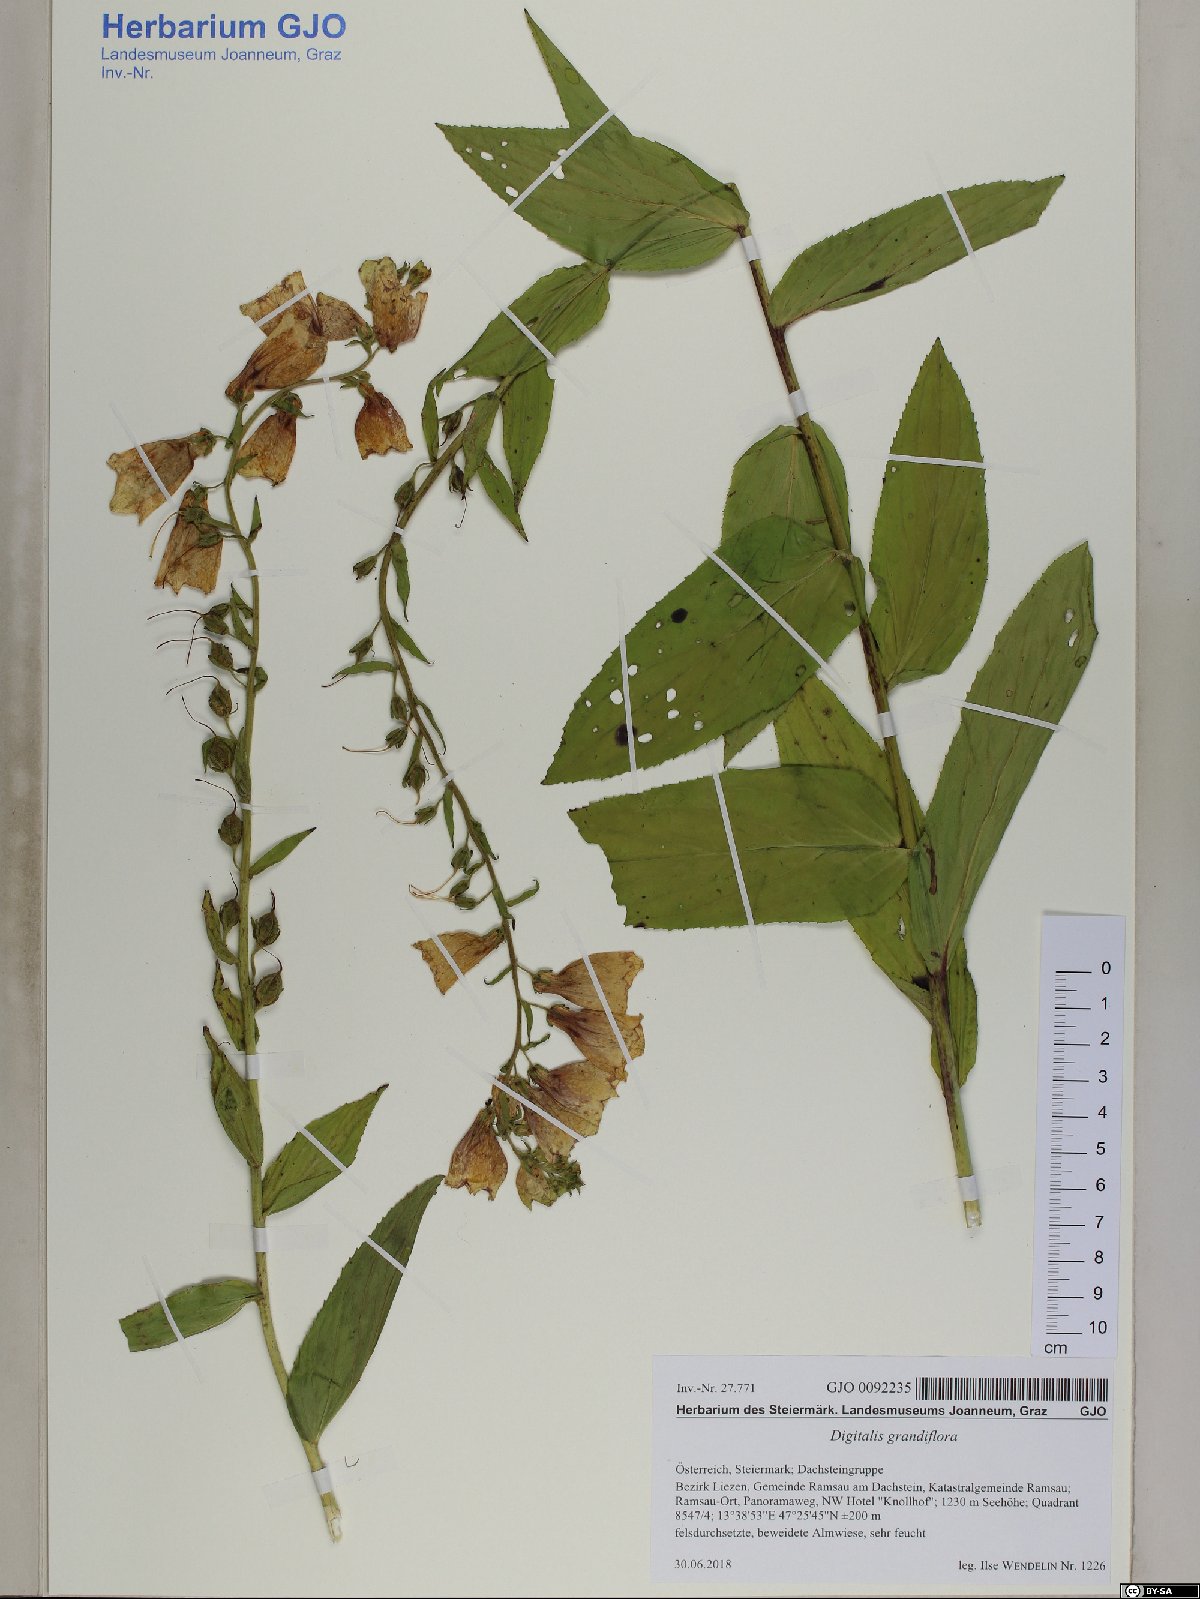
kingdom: Plantae
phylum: Tracheophyta
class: Magnoliopsida
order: Lamiales
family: Plantaginaceae
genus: Digitalis
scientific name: Digitalis grandiflora
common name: Yellow foxglove
